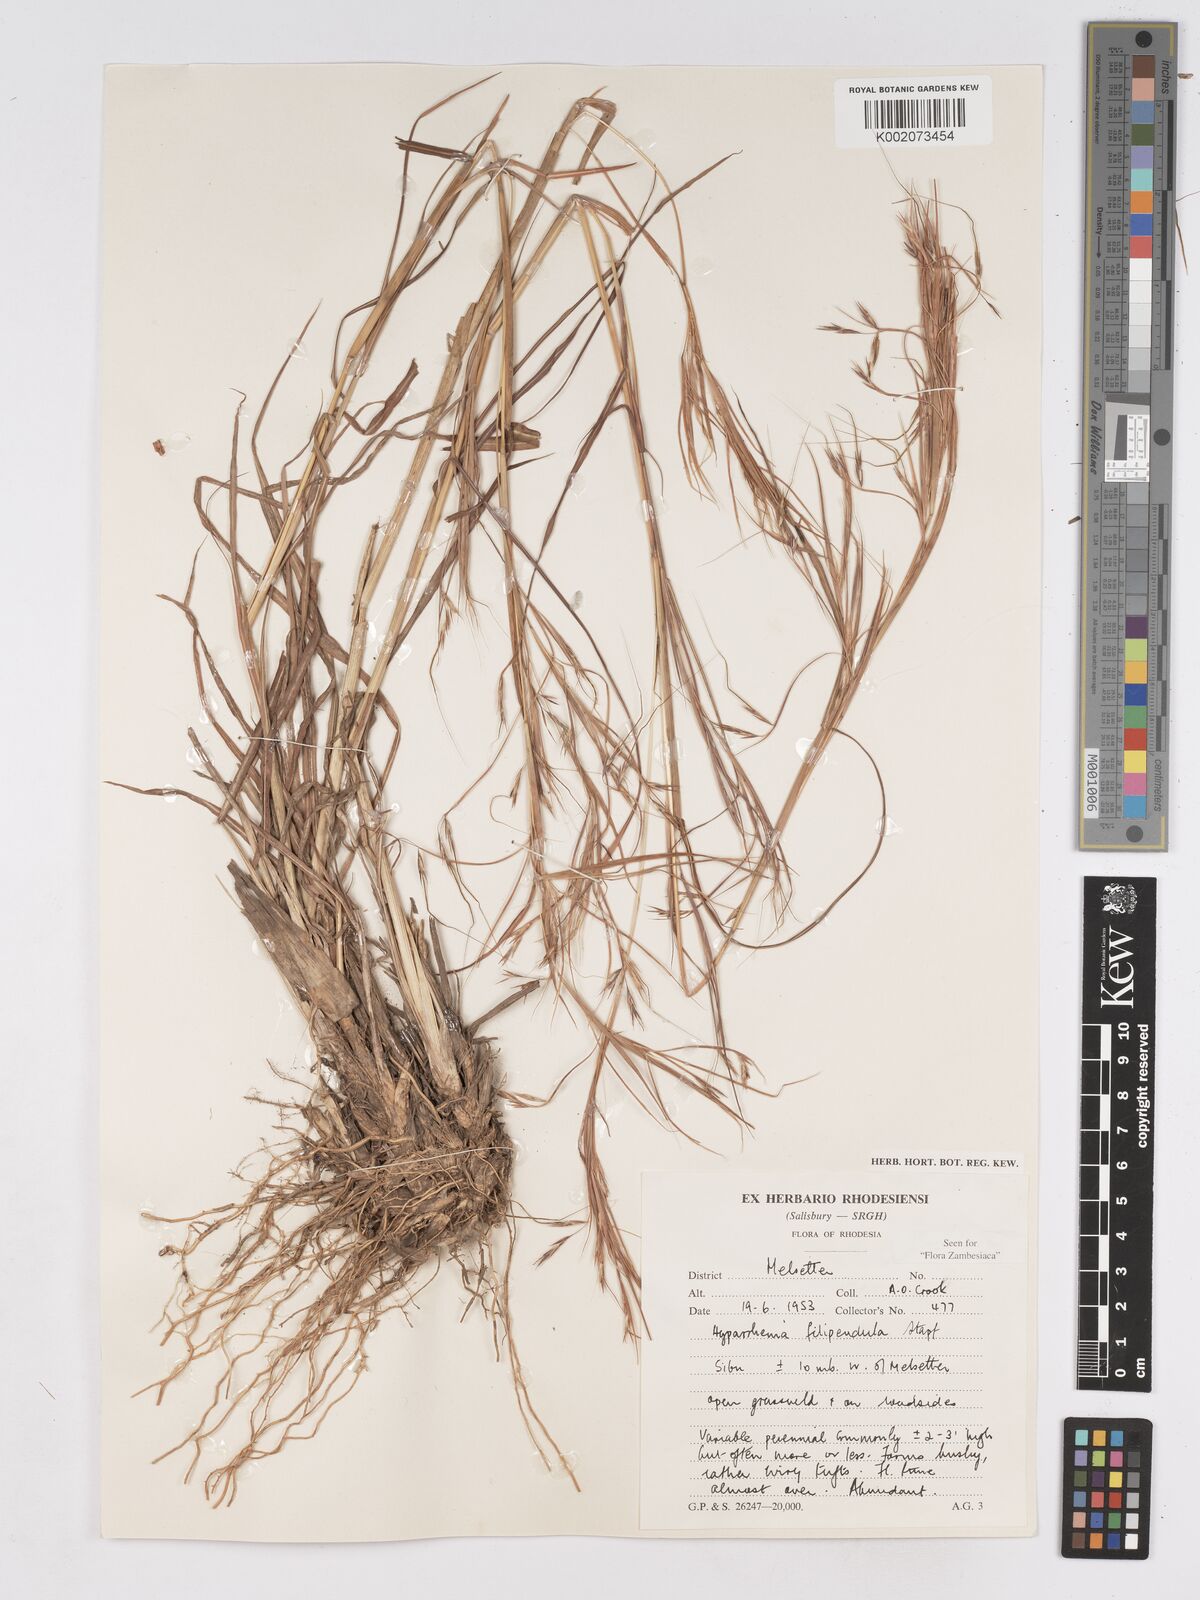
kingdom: Plantae
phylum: Tracheophyta
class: Liliopsida
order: Poales
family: Poaceae
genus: Hyparrhenia
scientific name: Hyparrhenia filipendula
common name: Tambookie grass
